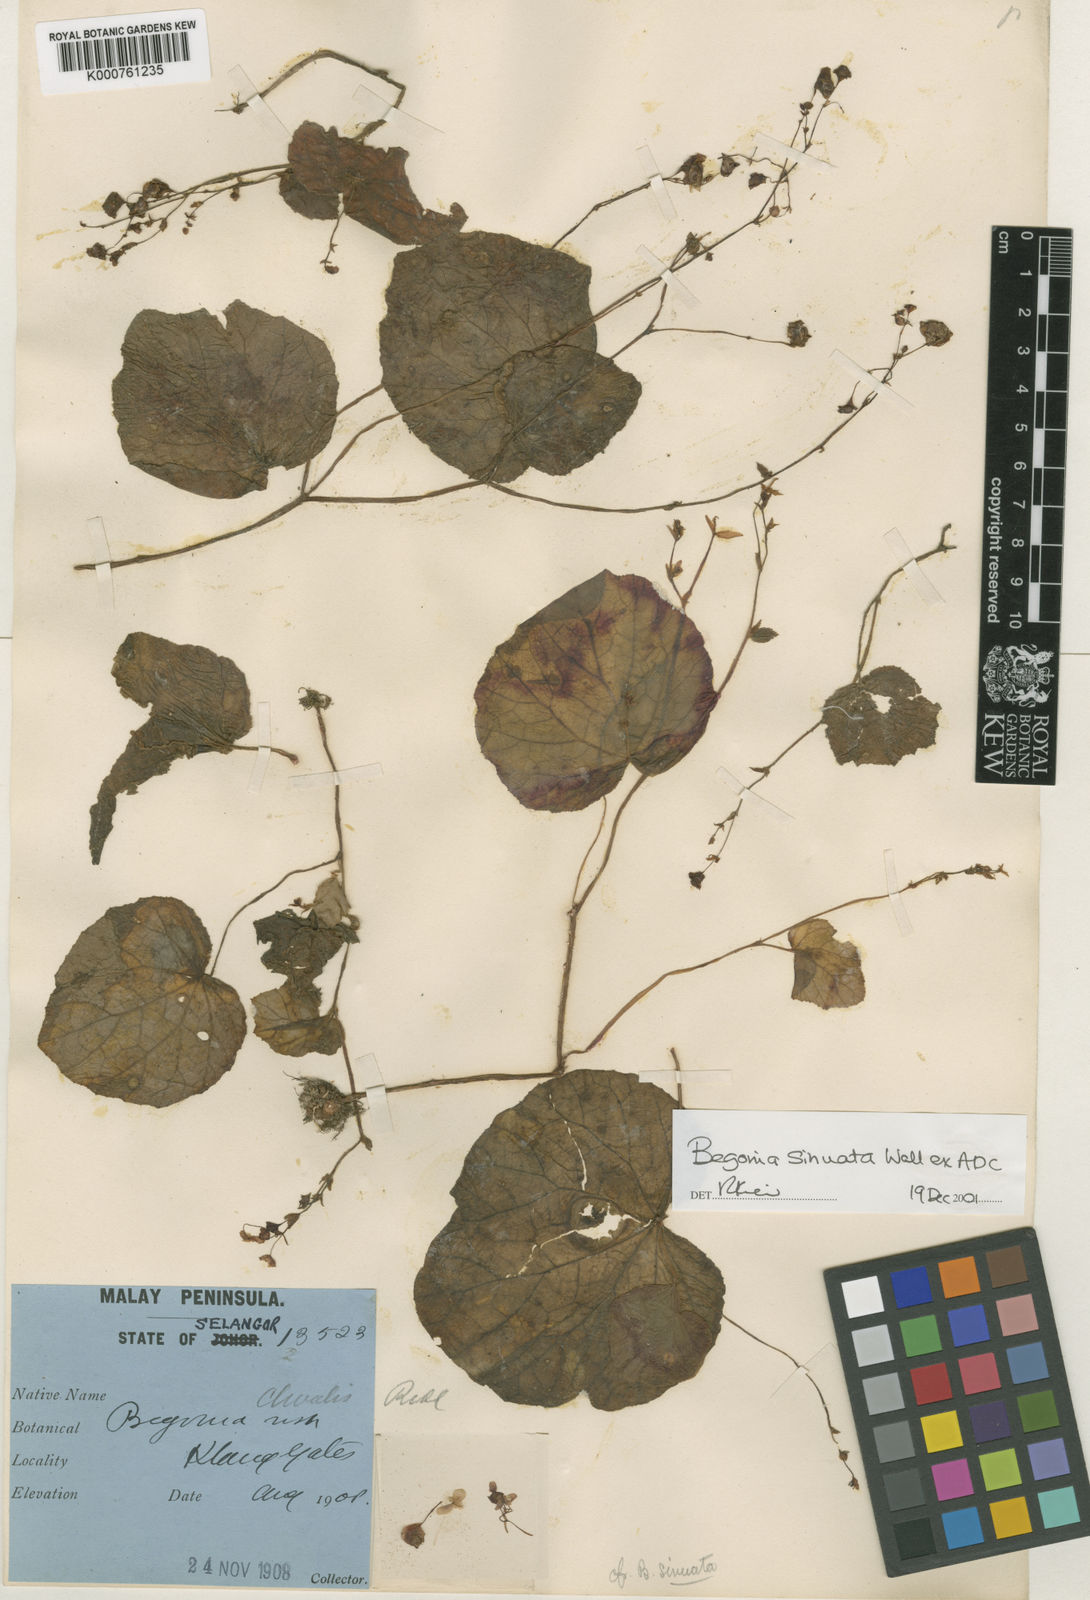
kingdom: Plantae
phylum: Tracheophyta
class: Magnoliopsida
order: Cucurbitales
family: Begoniaceae
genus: Begonia
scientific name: Begonia
